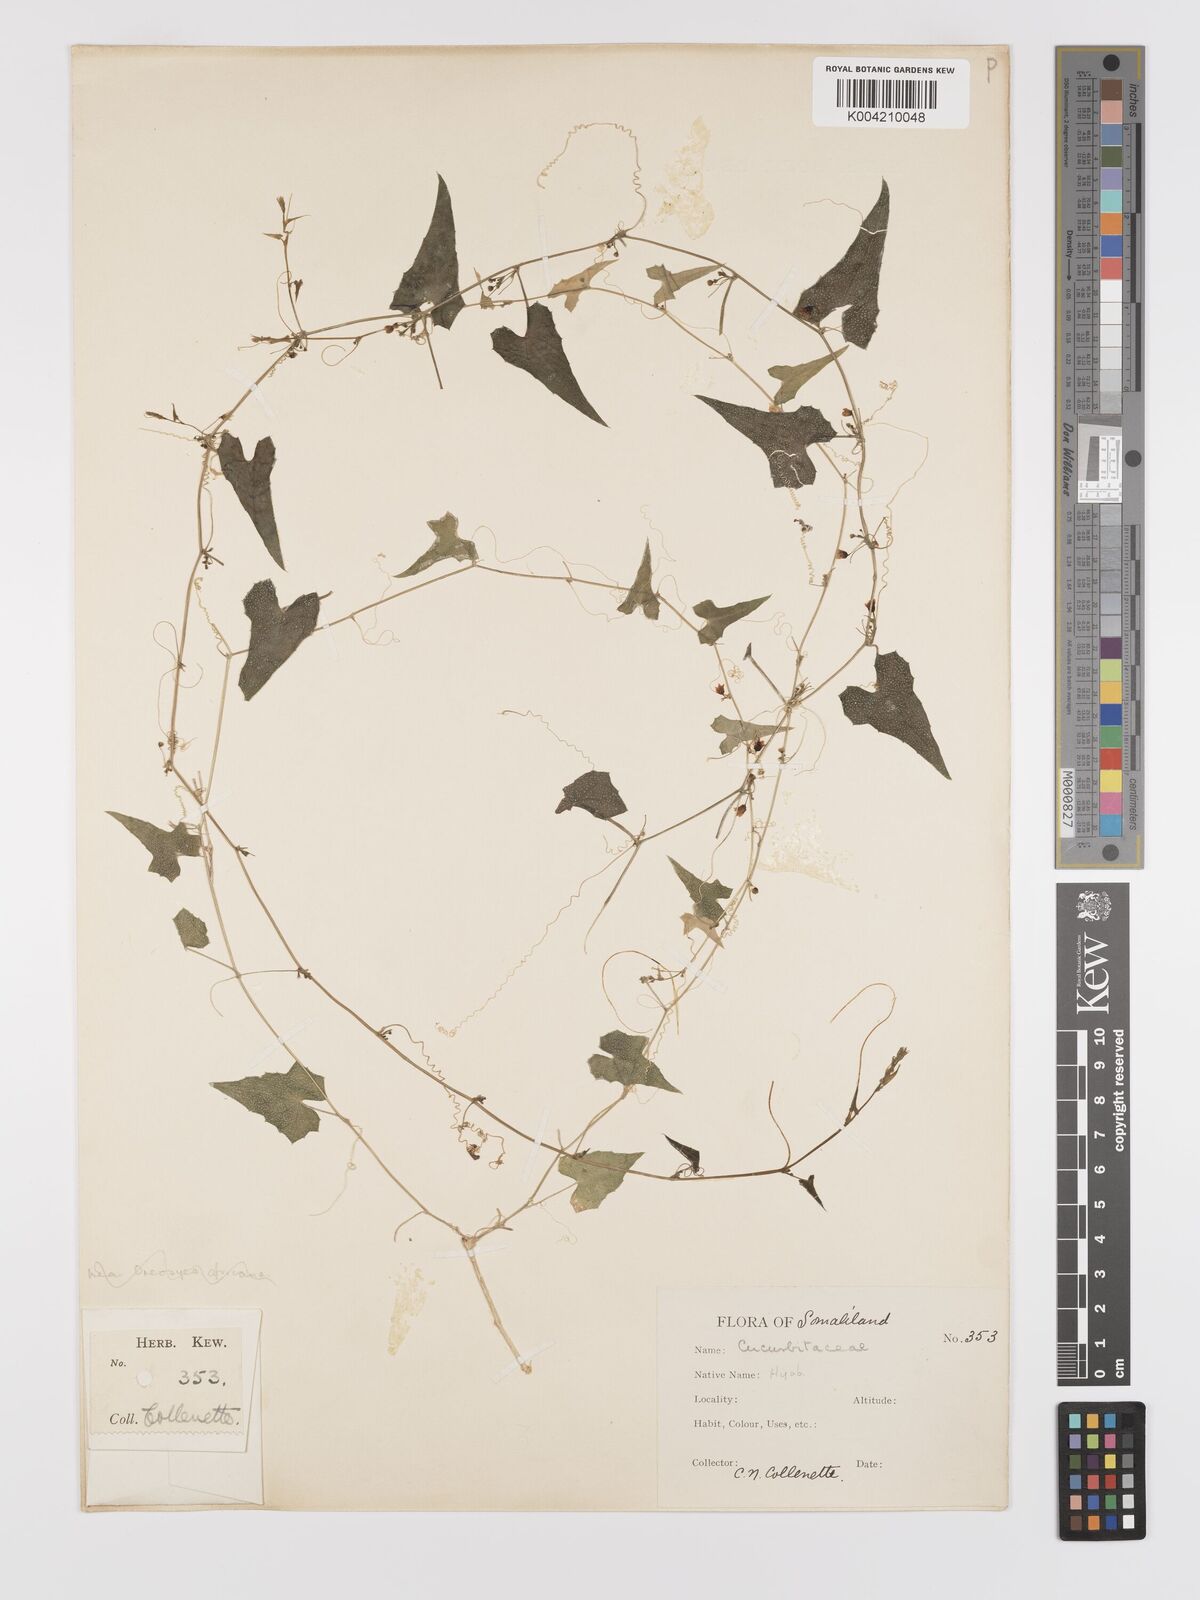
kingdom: Plantae
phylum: Tracheophyta
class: Magnoliopsida
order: Cucurbitales
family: Cucurbitaceae
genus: Zehneria
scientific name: Zehneria scabra
